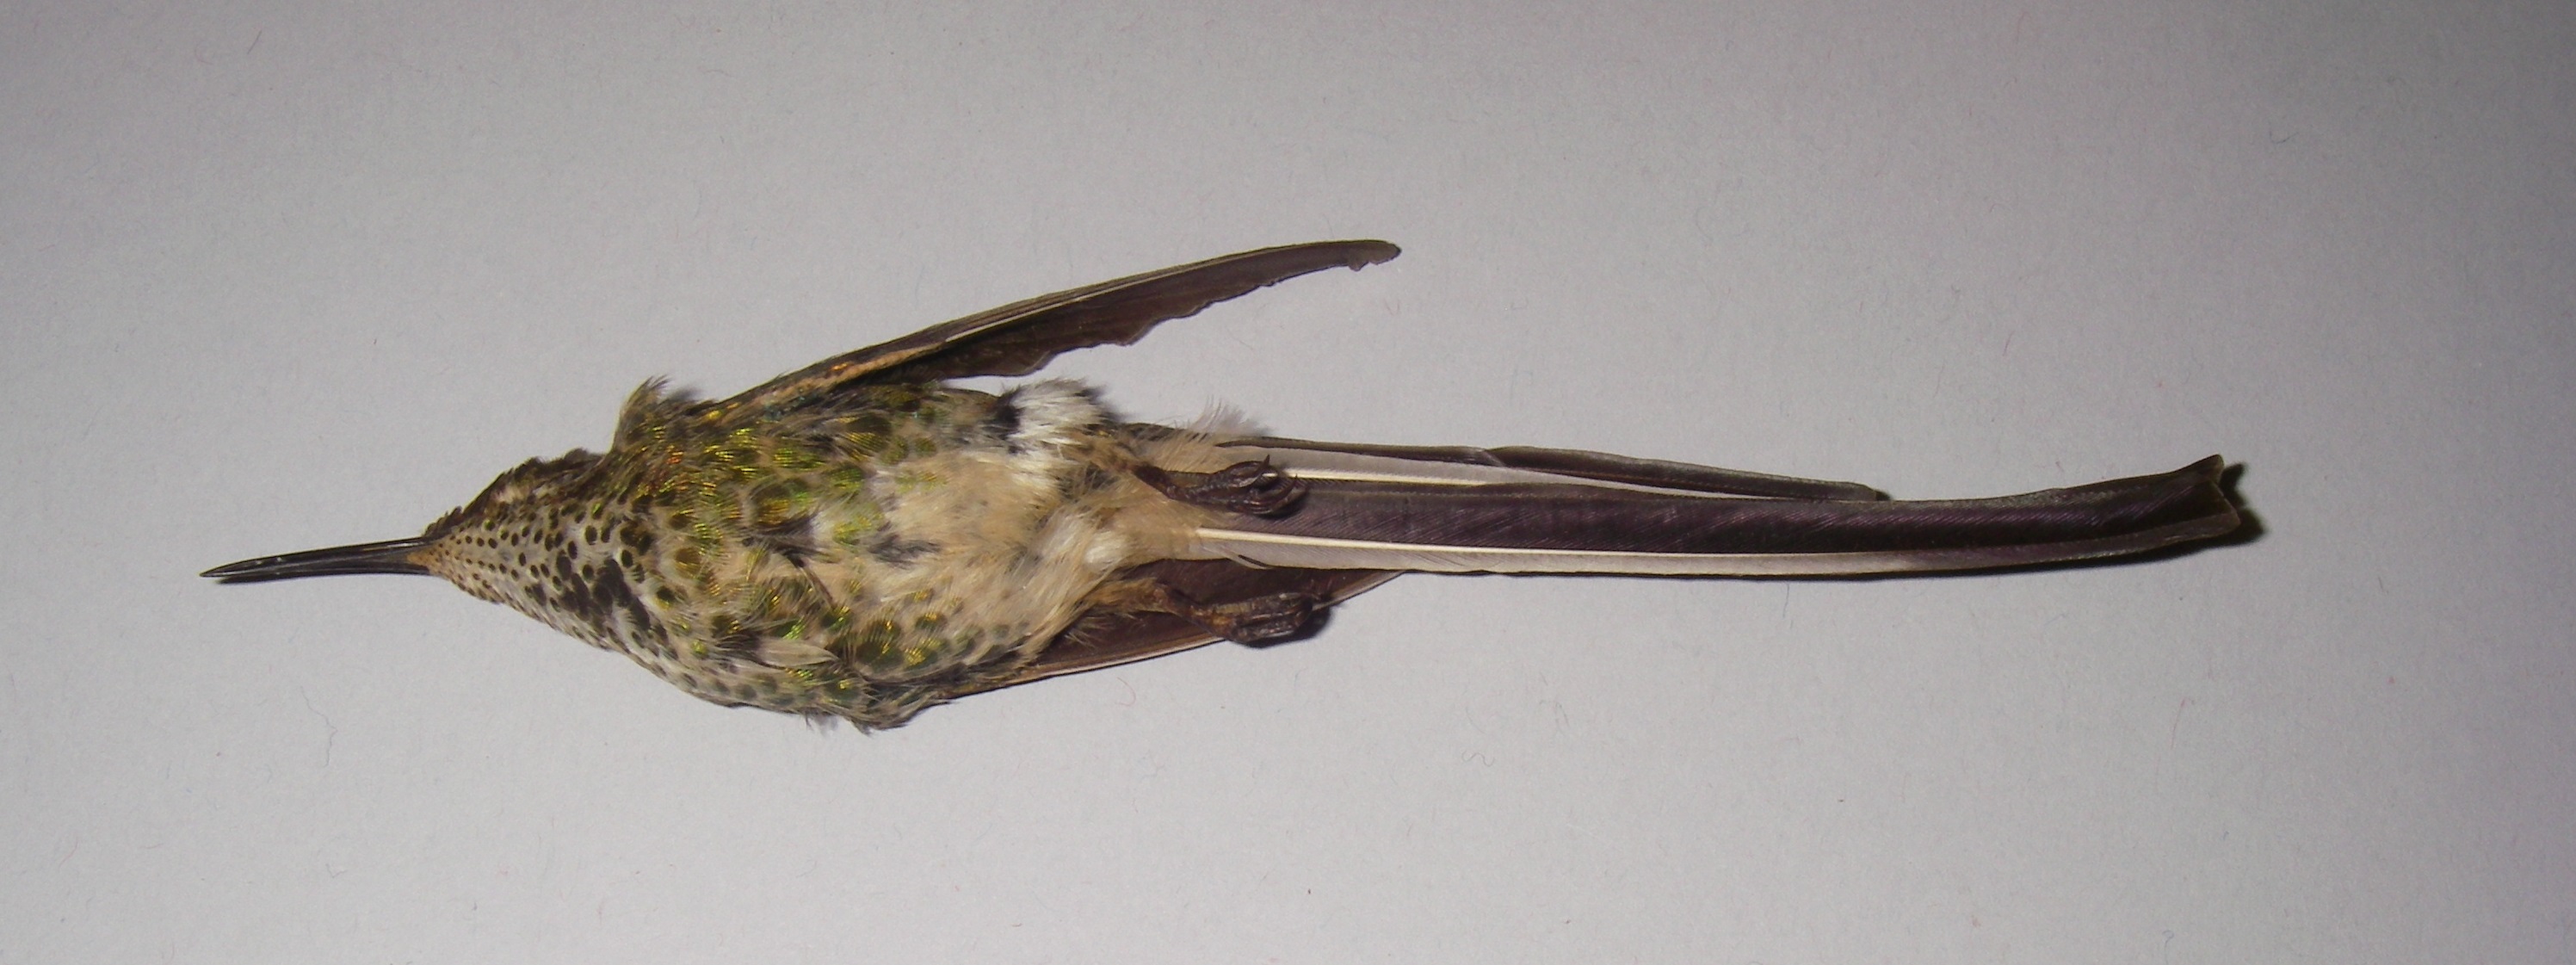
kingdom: Animalia
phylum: Chordata
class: Aves
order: Apodiformes
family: Trochilidae
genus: Lesbia
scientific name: Lesbia victoriae
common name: Black-tailed trainbearer
